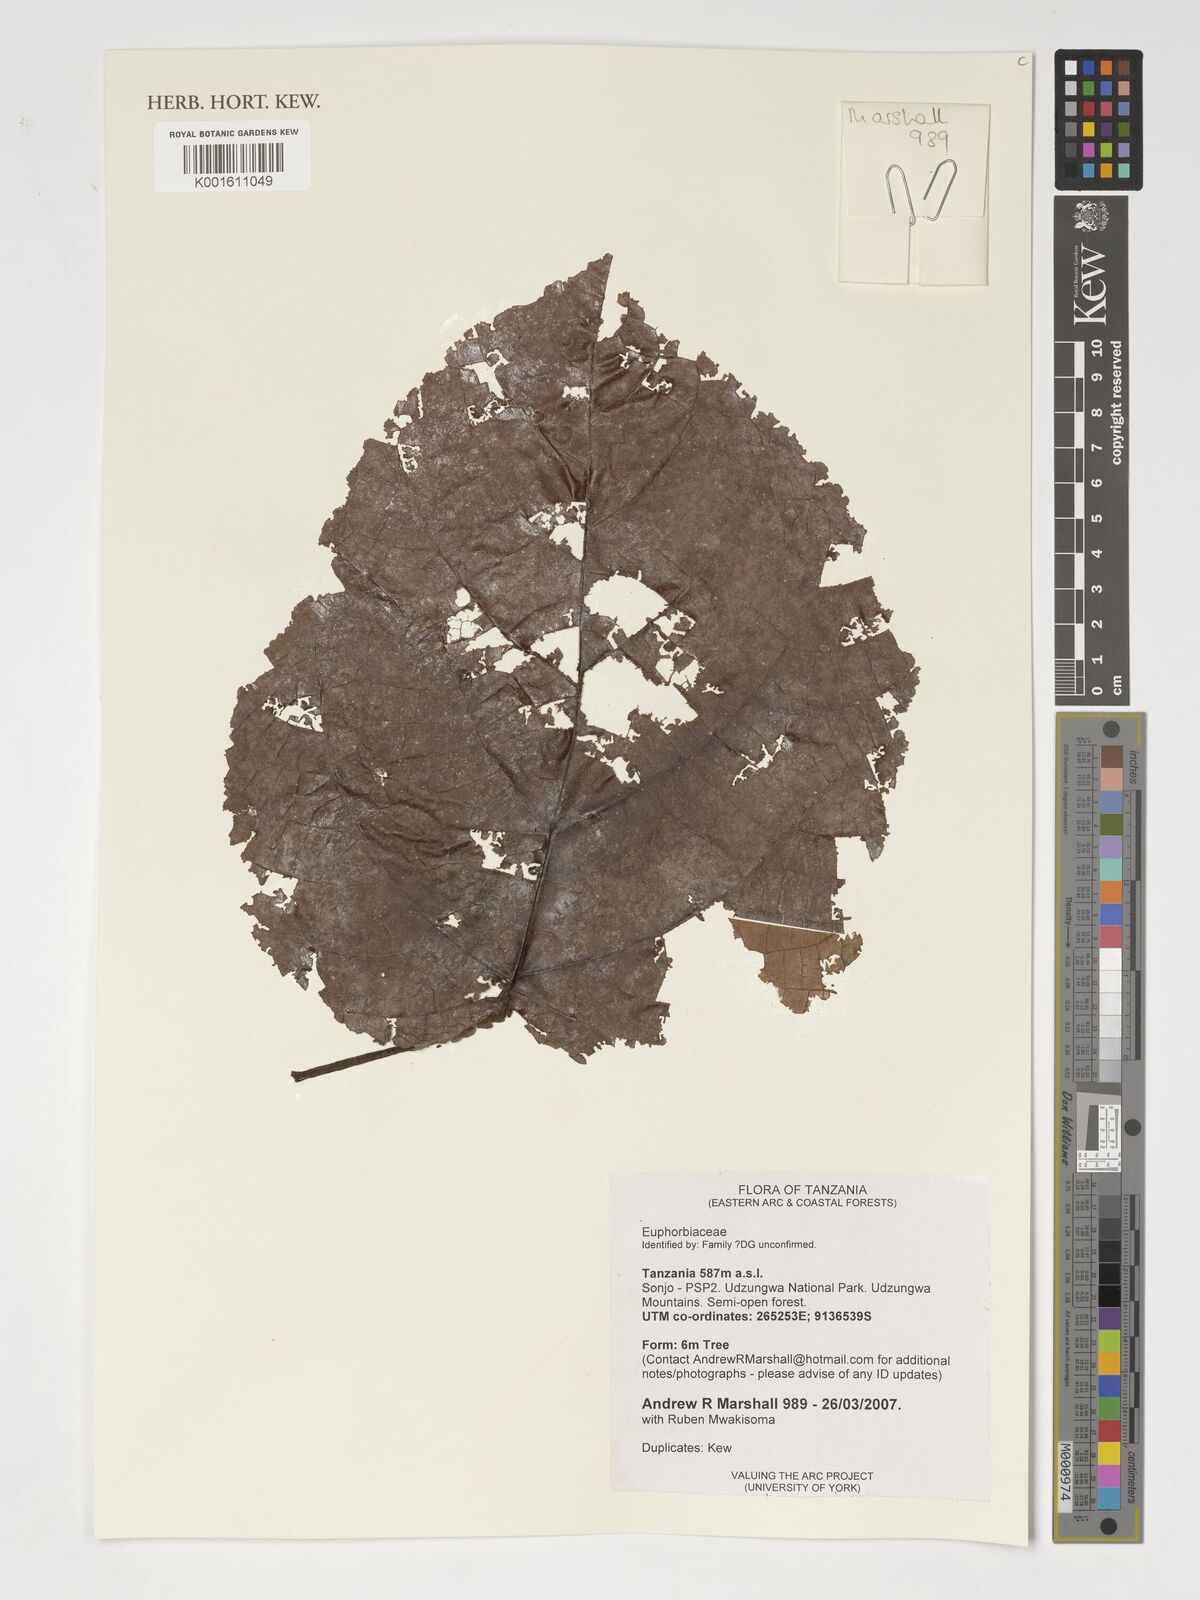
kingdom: Plantae
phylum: Tracheophyta
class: Magnoliopsida
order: Malpighiales
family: Euphorbiaceae
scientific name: Euphorbiaceae
